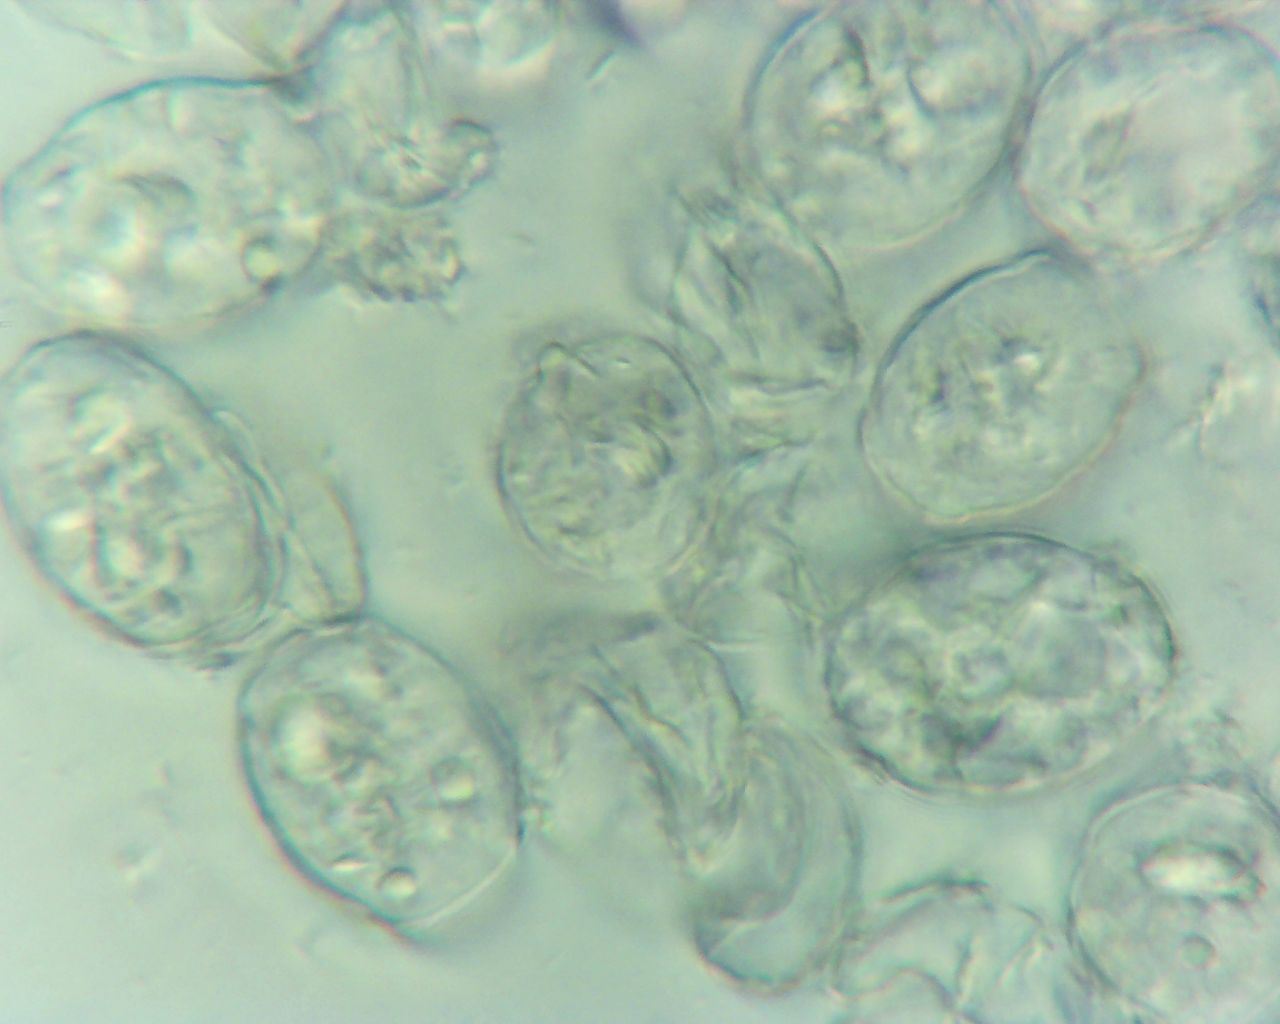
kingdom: Fungi
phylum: Ascomycota
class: Leotiomycetes
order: Helotiales
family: Erysiphaceae
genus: Podosphaera
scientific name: Podosphaera leucotricha
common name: æble-meldug
